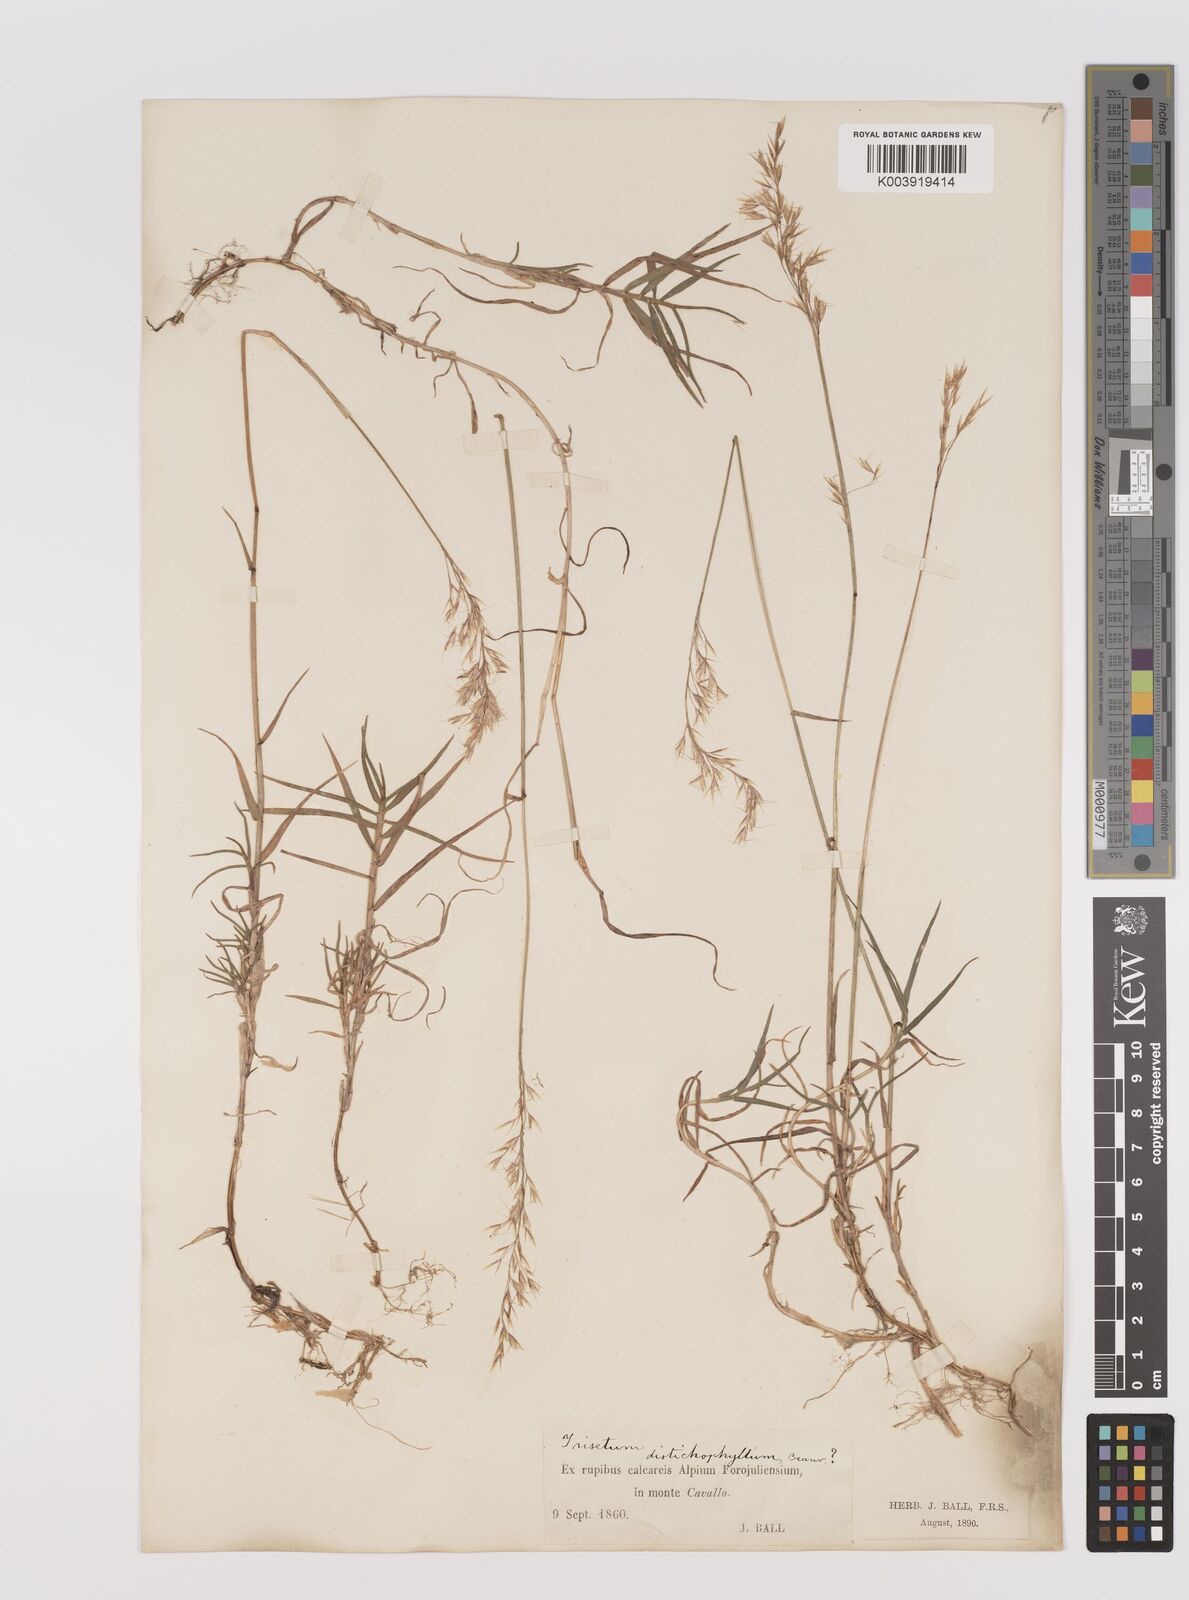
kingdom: Plantae
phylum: Tracheophyta
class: Liliopsida
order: Poales
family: Poaceae
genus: Acrospelion
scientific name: Acrospelion distichophyllum
